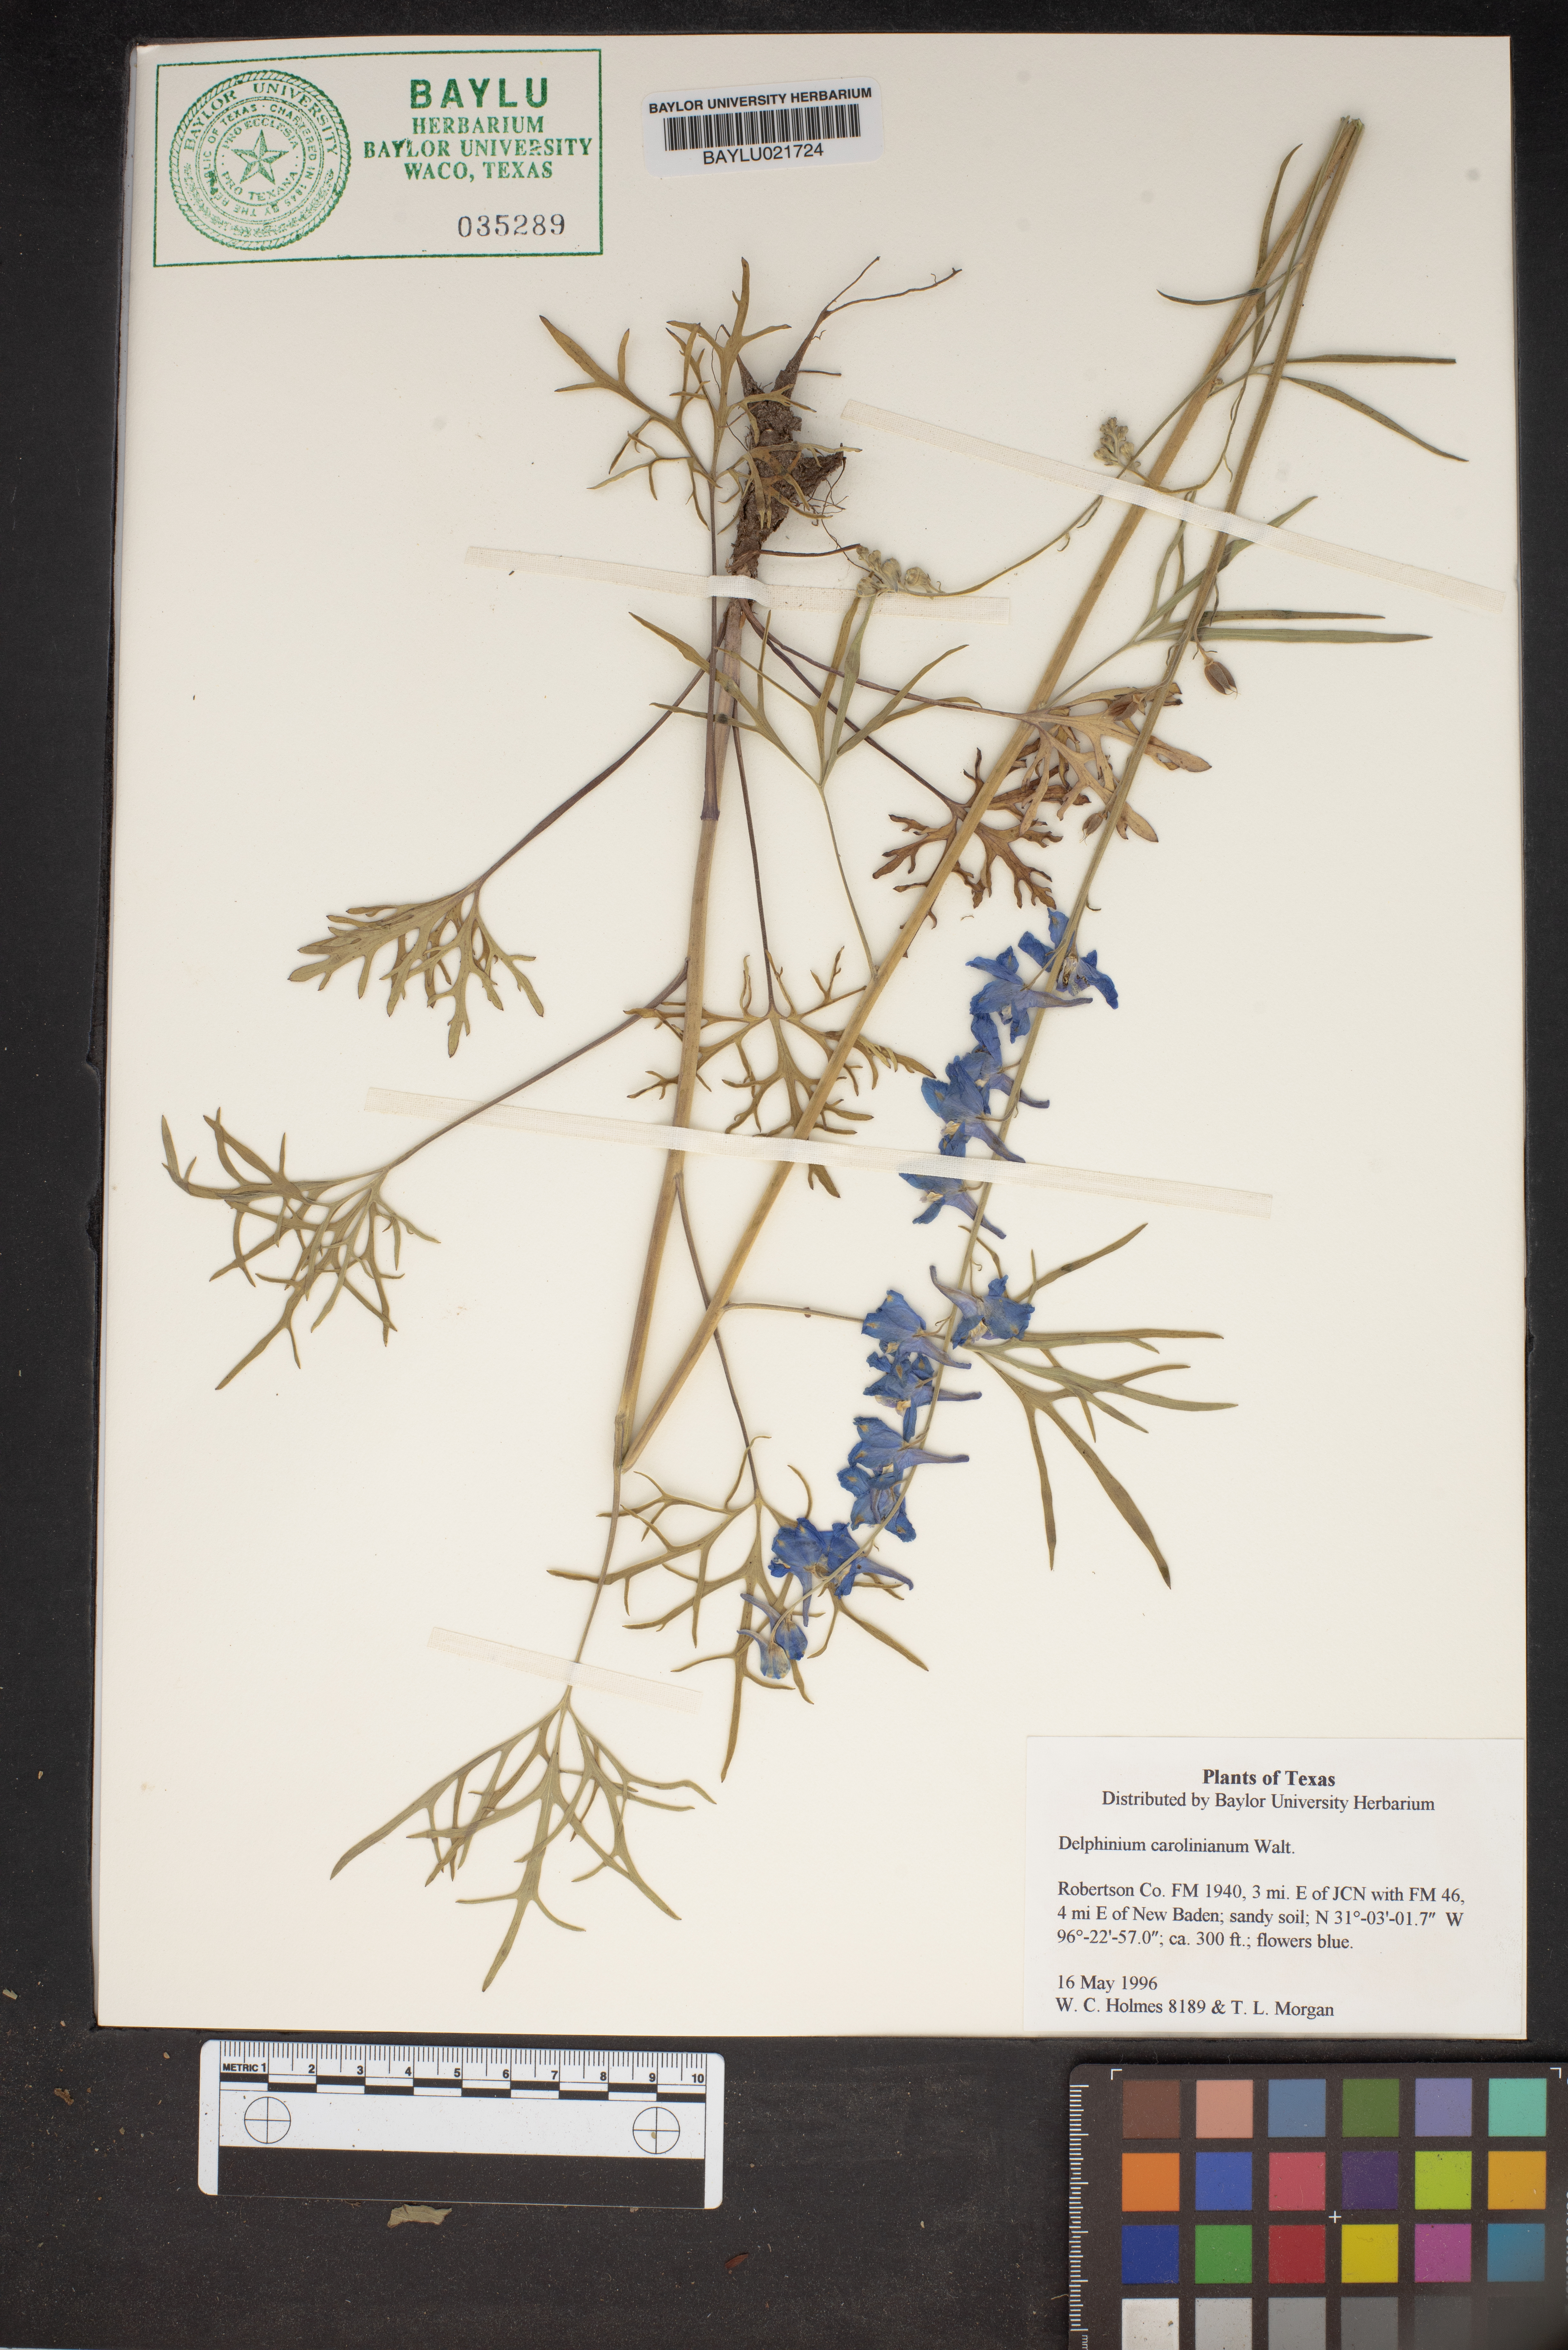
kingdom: Plantae
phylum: Tracheophyta
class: Magnoliopsida
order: Ranunculales
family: Ranunculaceae
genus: Delphinium
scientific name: Delphinium carolinianum
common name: Carolina larkspur
